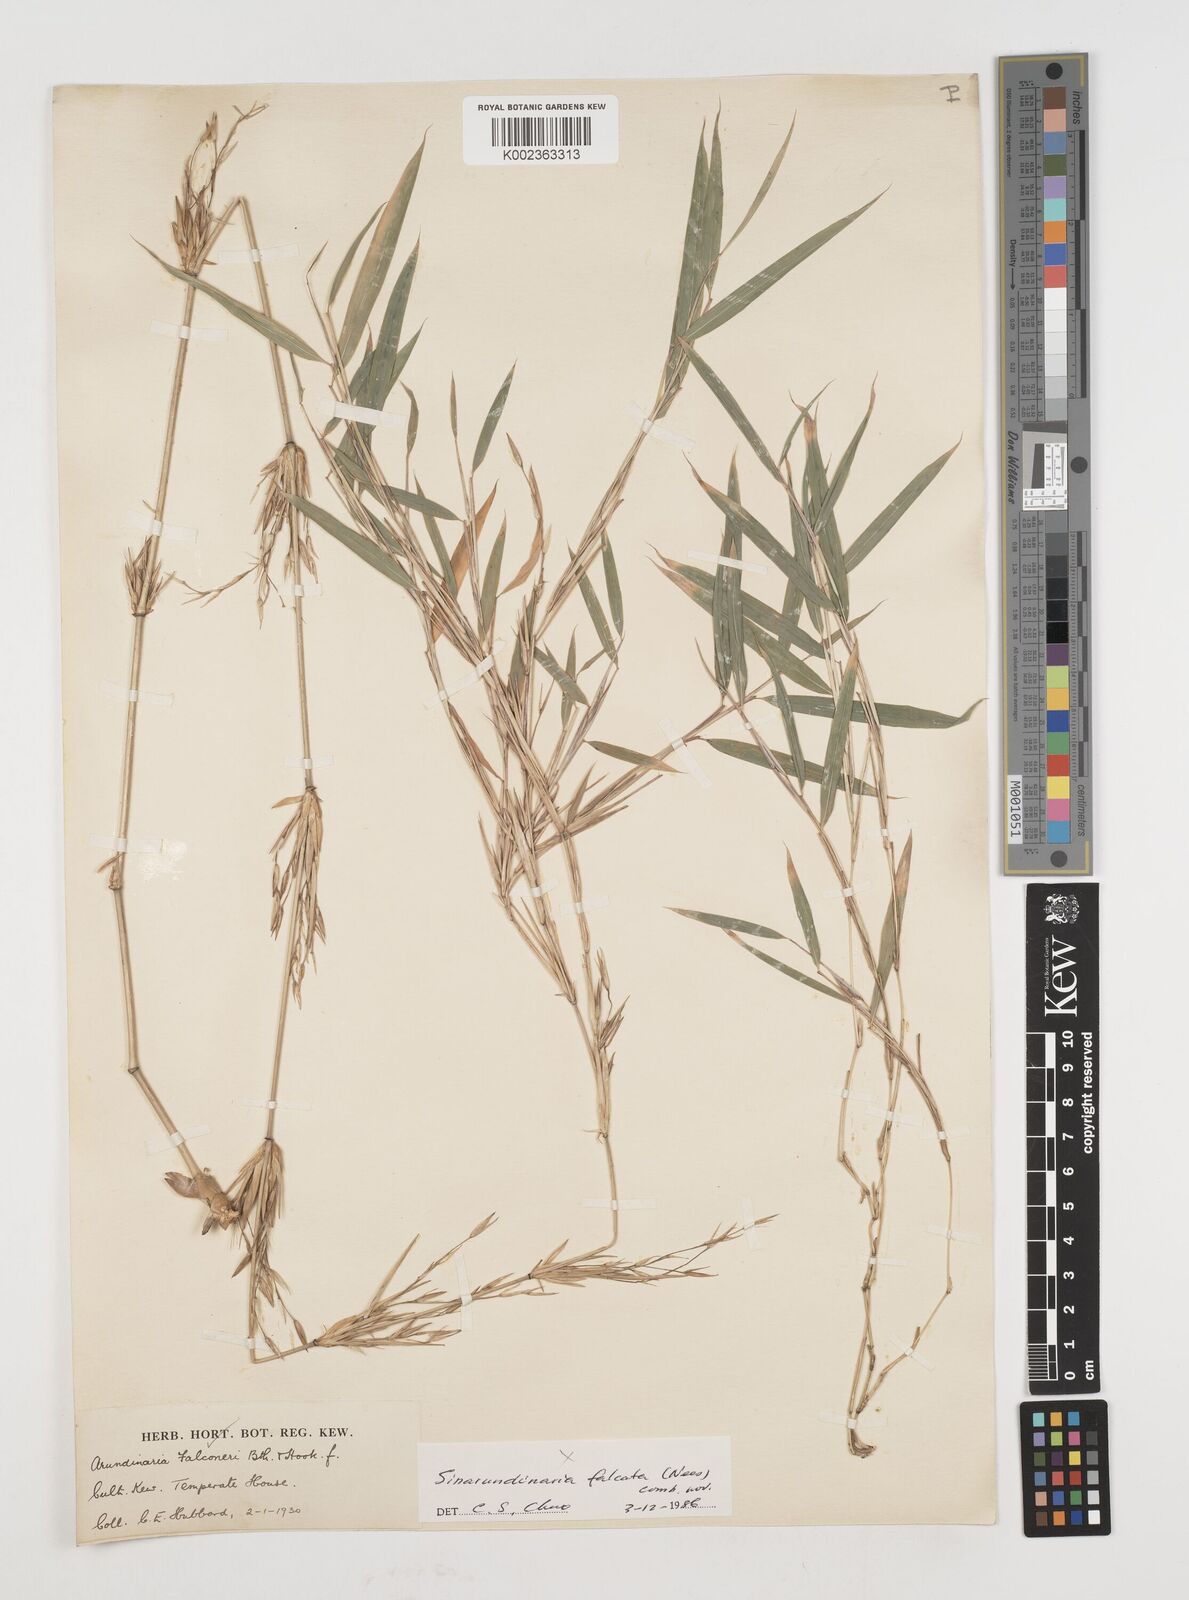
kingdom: Plantae
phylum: Tracheophyta
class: Liliopsida
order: Poales
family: Poaceae
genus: Himalayacalamus
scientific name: Himalayacalamus falconeri
